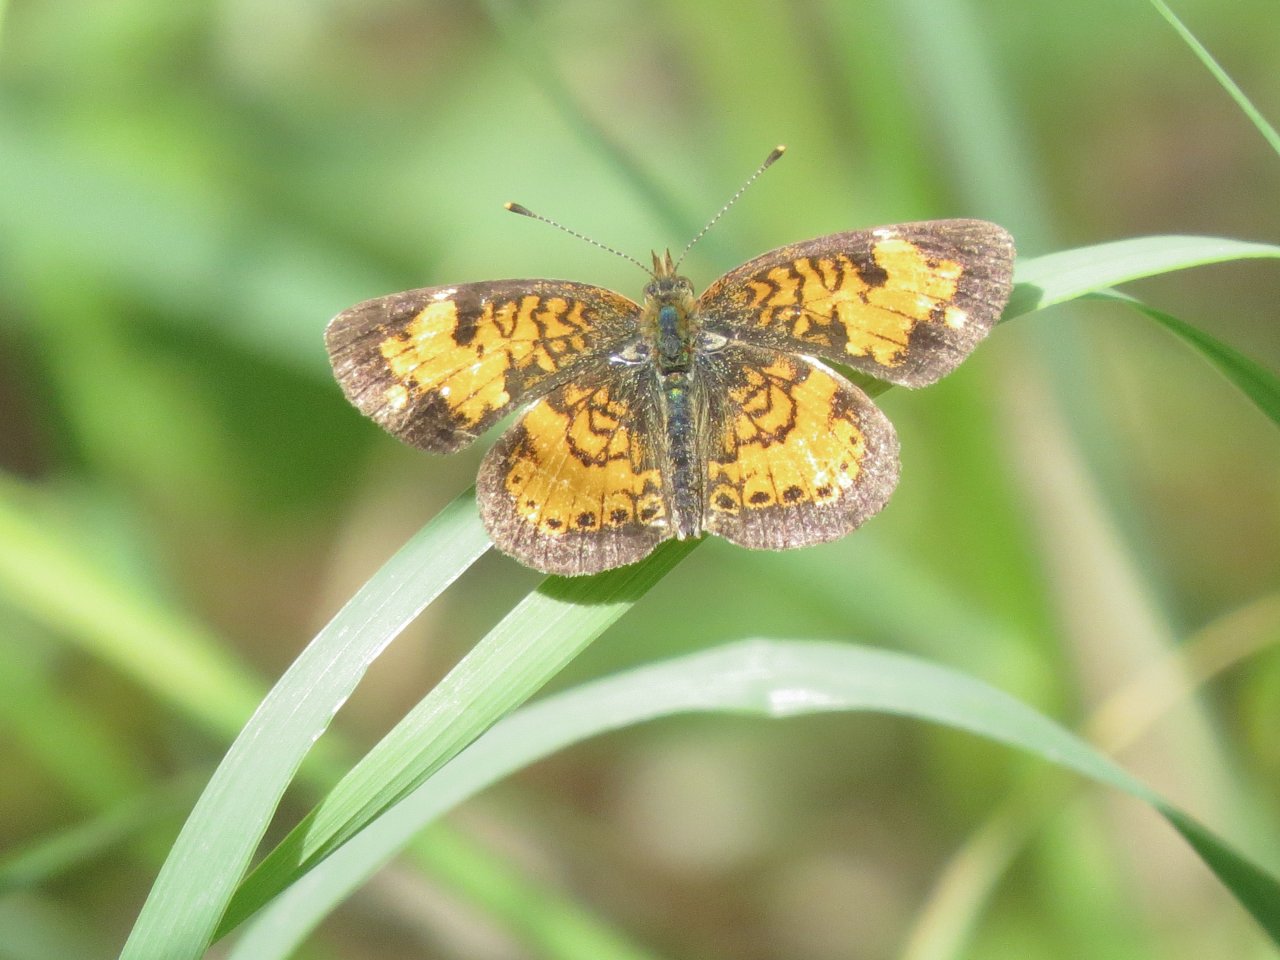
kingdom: Animalia
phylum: Arthropoda
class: Insecta
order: Lepidoptera
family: Nymphalidae
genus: Phyciodes
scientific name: Phyciodes tharos
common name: Northern Crescent
